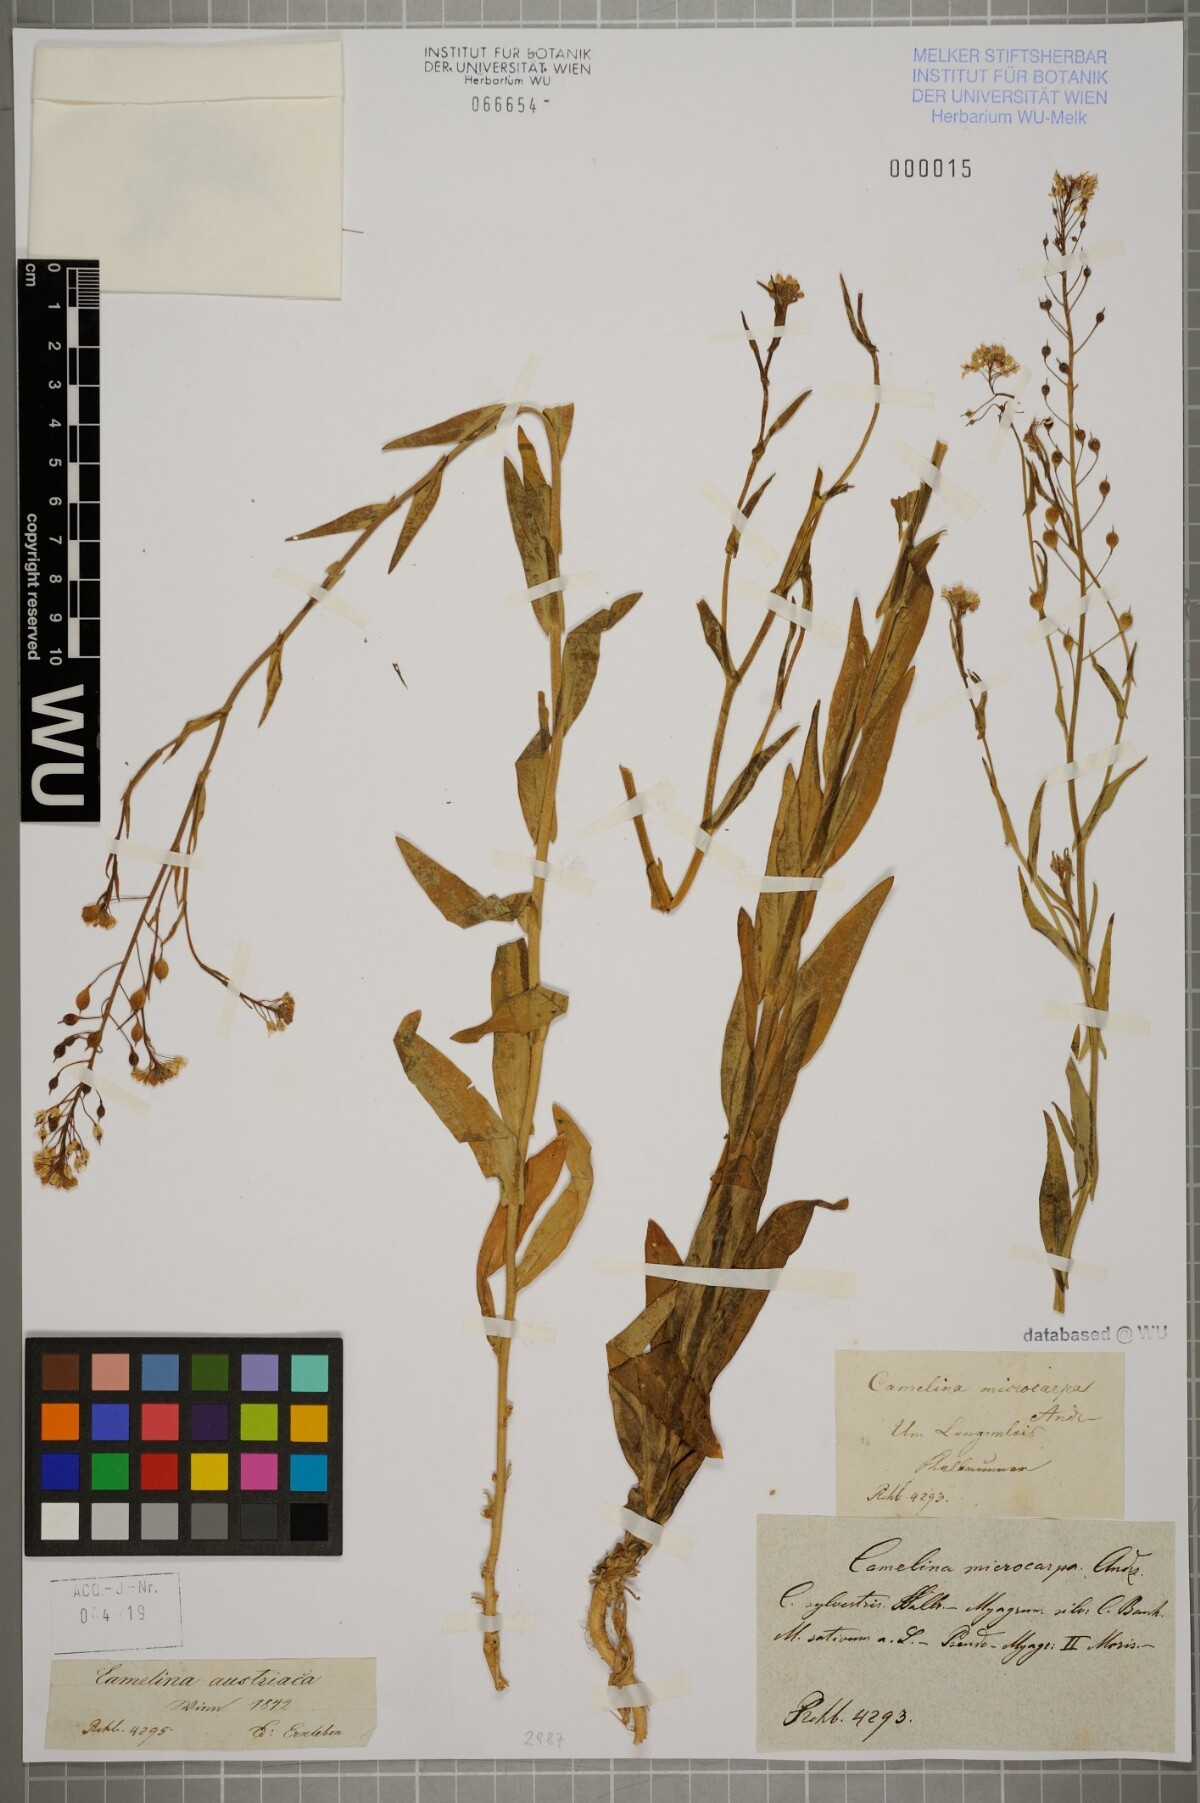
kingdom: Plantae
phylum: Tracheophyta
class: Magnoliopsida
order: Brassicales
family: Brassicaceae
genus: Camelina
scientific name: Camelina microcarpa
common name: Lesser gold-of-pleasure
